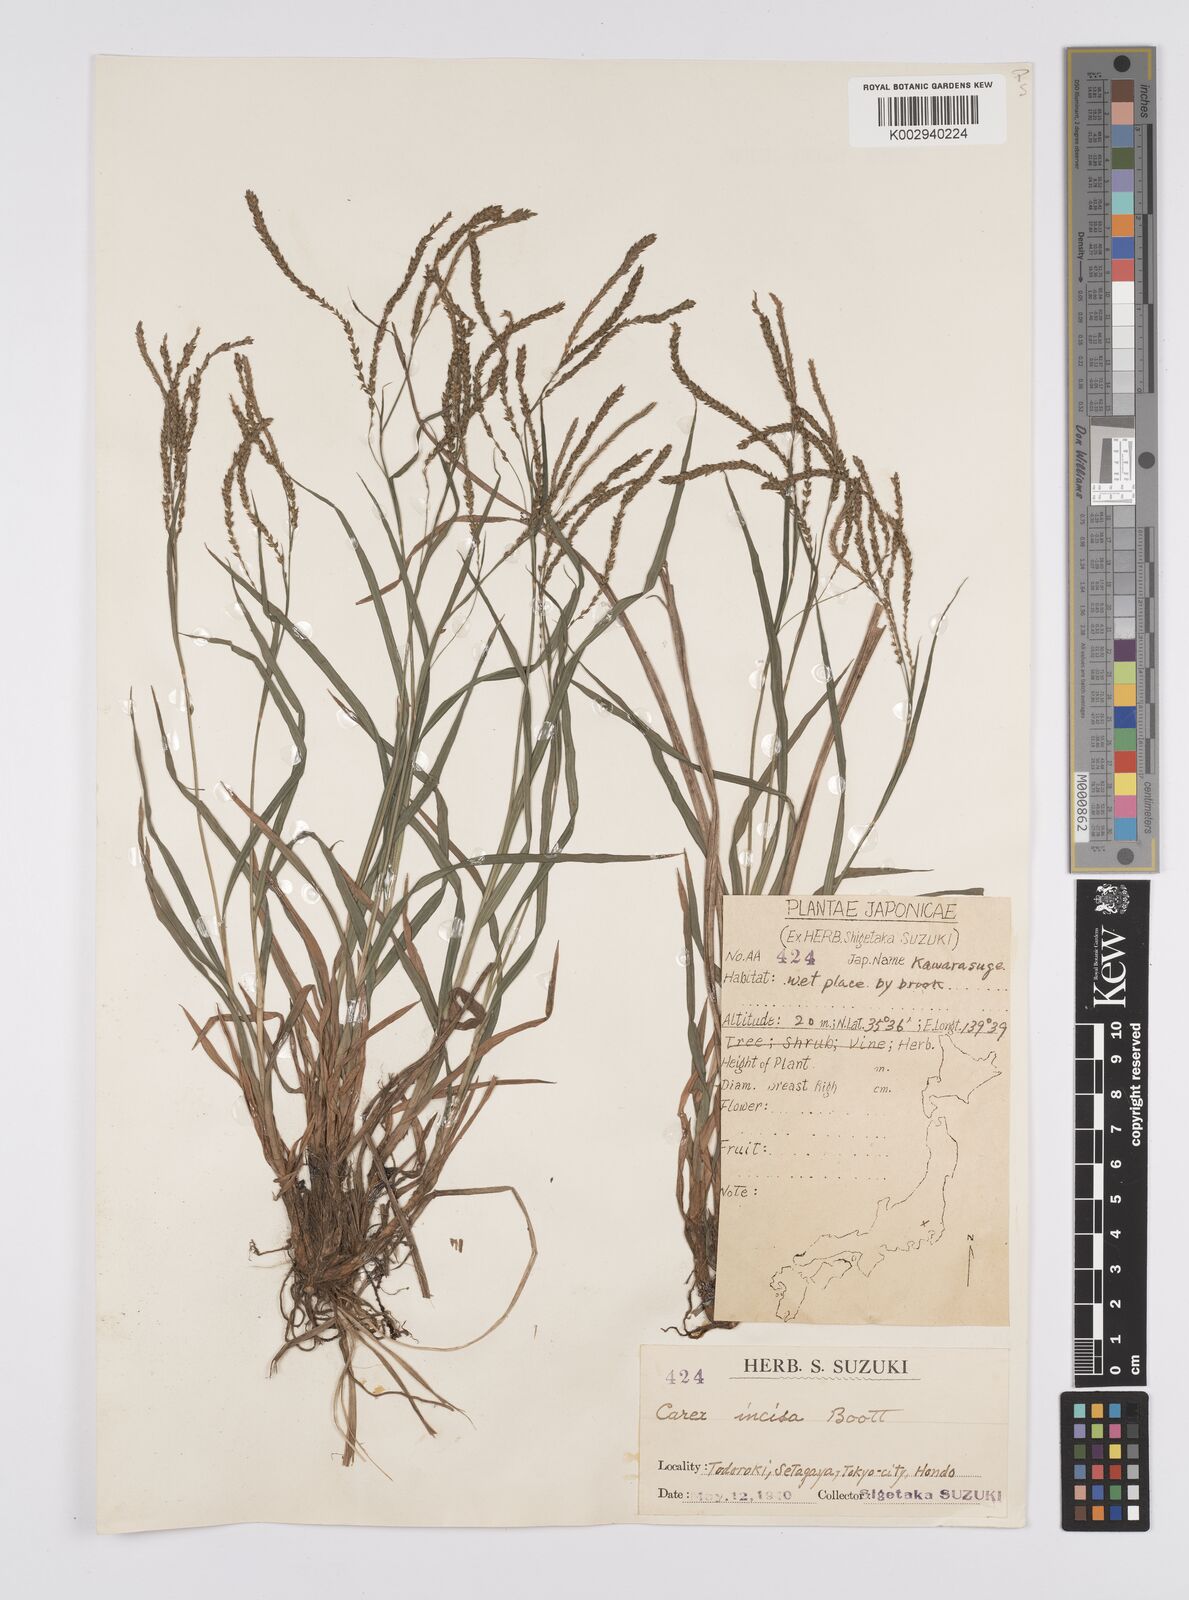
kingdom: Plantae
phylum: Tracheophyta
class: Liliopsida
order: Poales
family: Cyperaceae
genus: Carex
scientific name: Carex incisa
